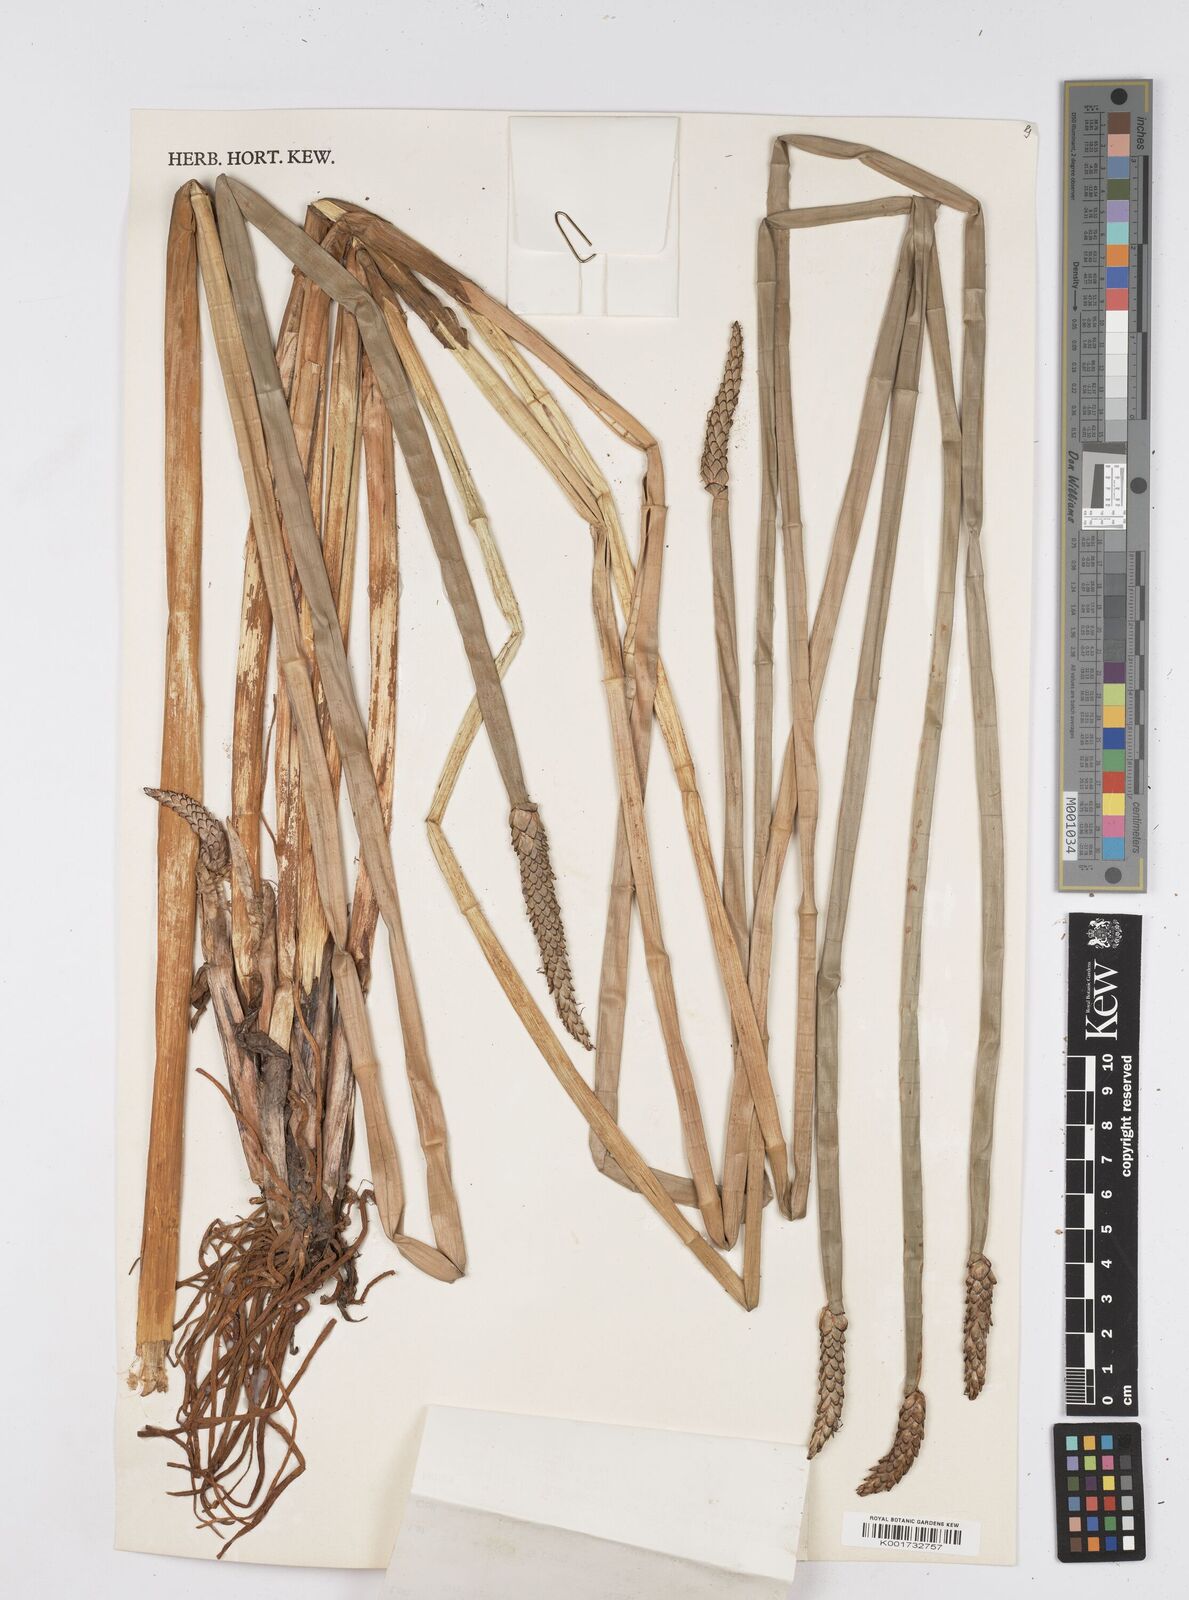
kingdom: Plantae
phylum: Tracheophyta
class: Liliopsida
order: Poales
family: Cyperaceae
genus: Eleocharis
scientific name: Eleocharis sphacelata
